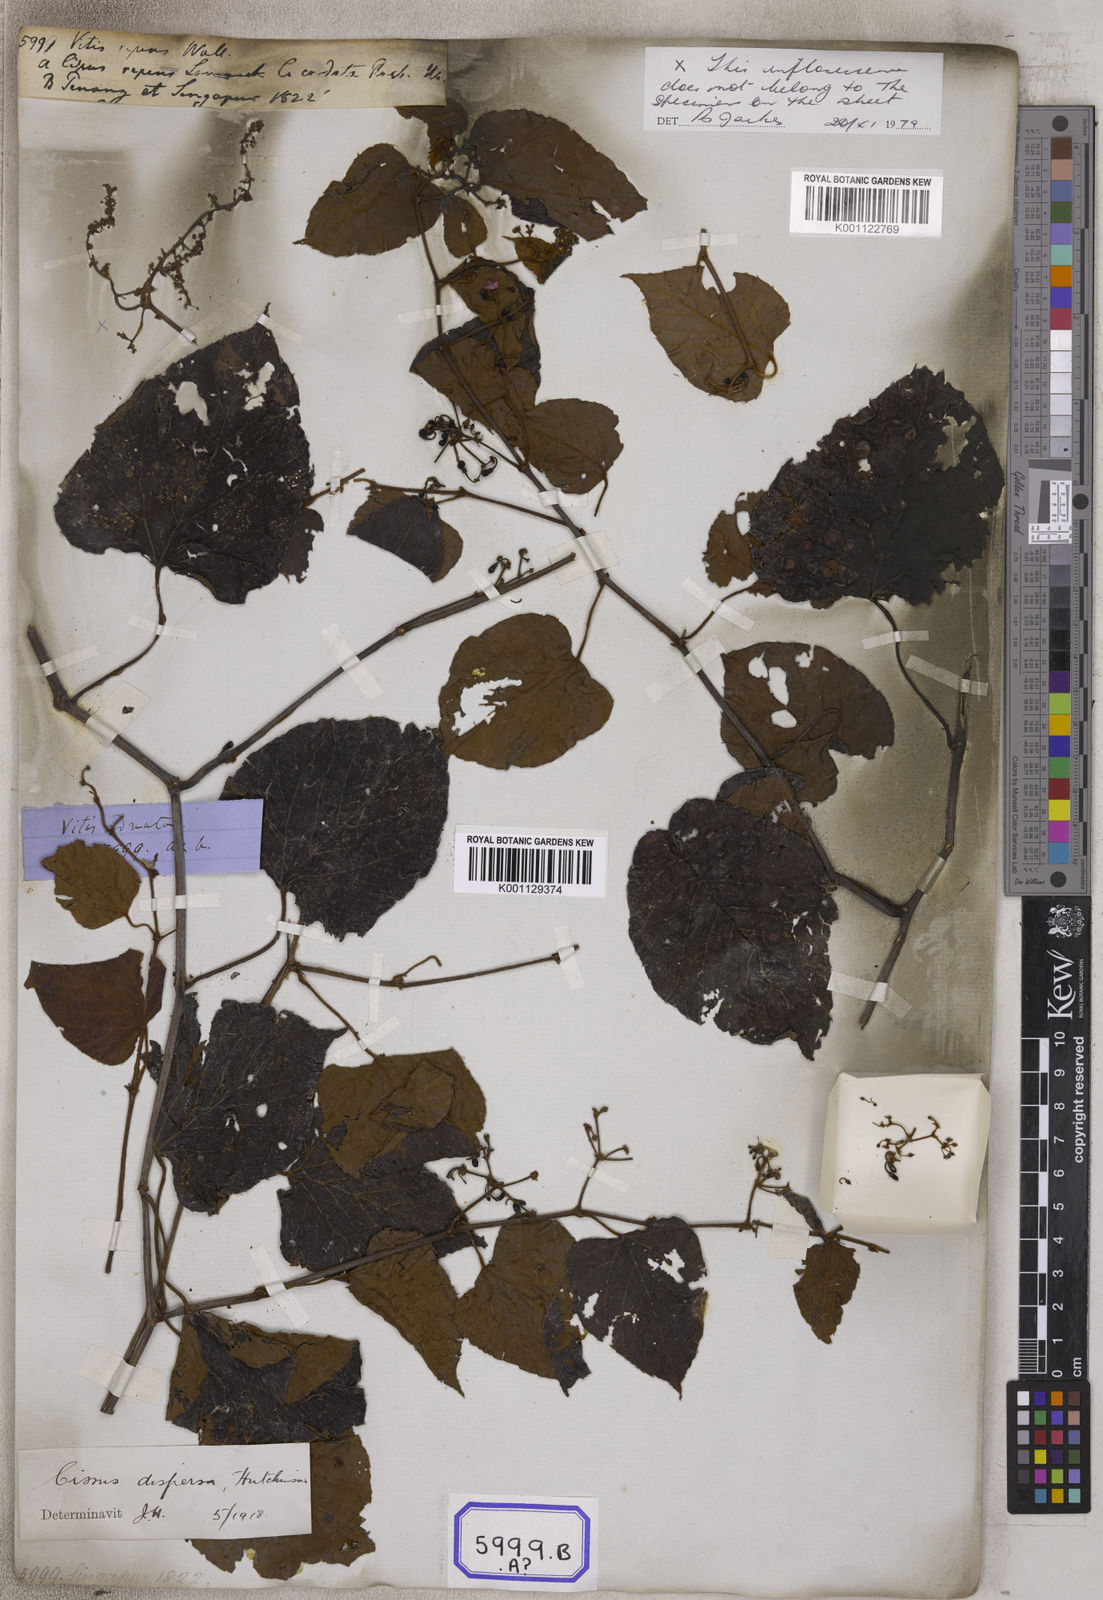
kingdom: Plantae
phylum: Tracheophyta
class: Magnoliopsida
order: Vitales
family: Vitaceae
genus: Cissus
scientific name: Cissus adnata
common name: Heart-leaf-grape
